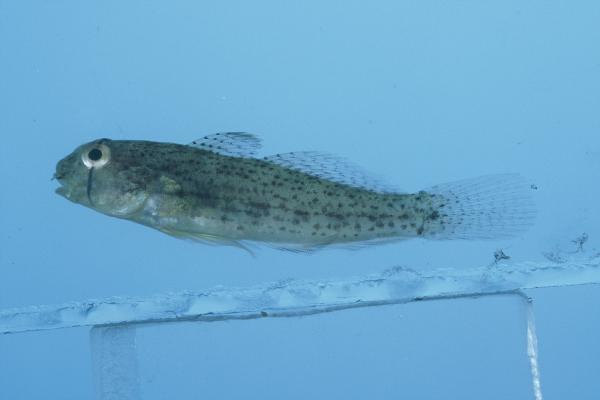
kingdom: Animalia
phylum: Chordata
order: Perciformes
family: Gobiidae
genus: Gnatholepis
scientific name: Gnatholepis anjerensis
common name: Anjer eye-bar goby
